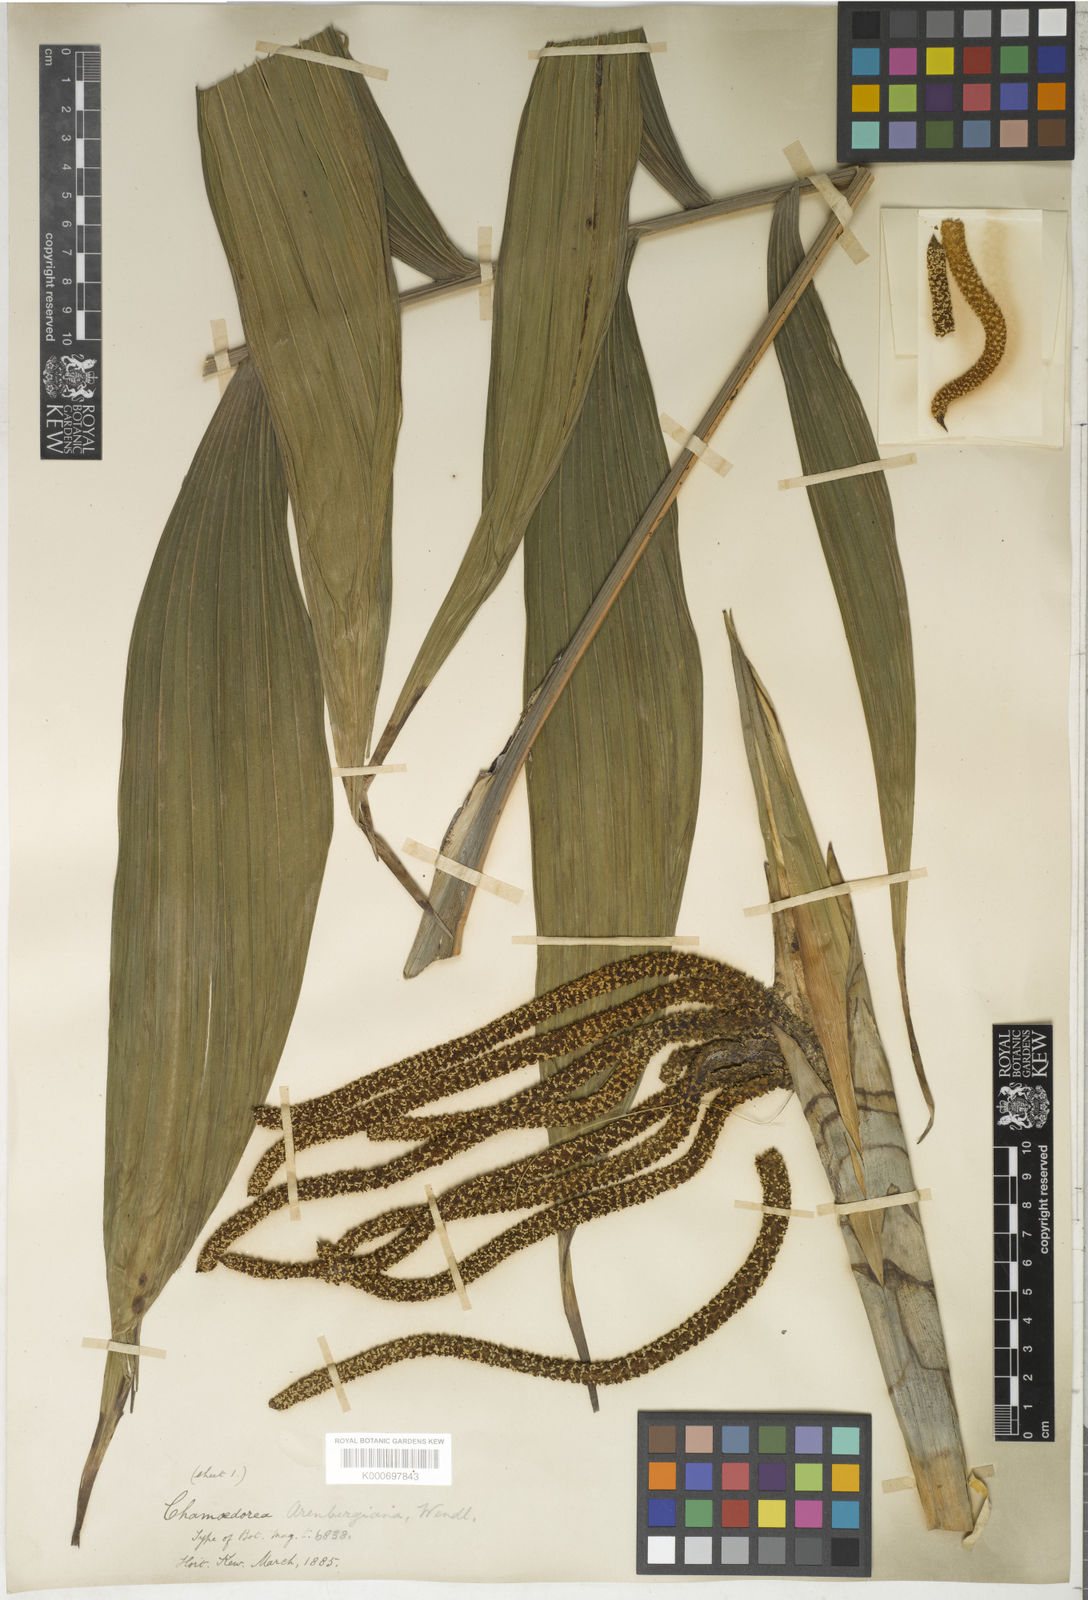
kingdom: Plantae
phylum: Tracheophyta
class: Liliopsida
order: Arecales
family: Arecaceae
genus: Chamaedorea
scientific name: Chamaedorea arenbergiana
